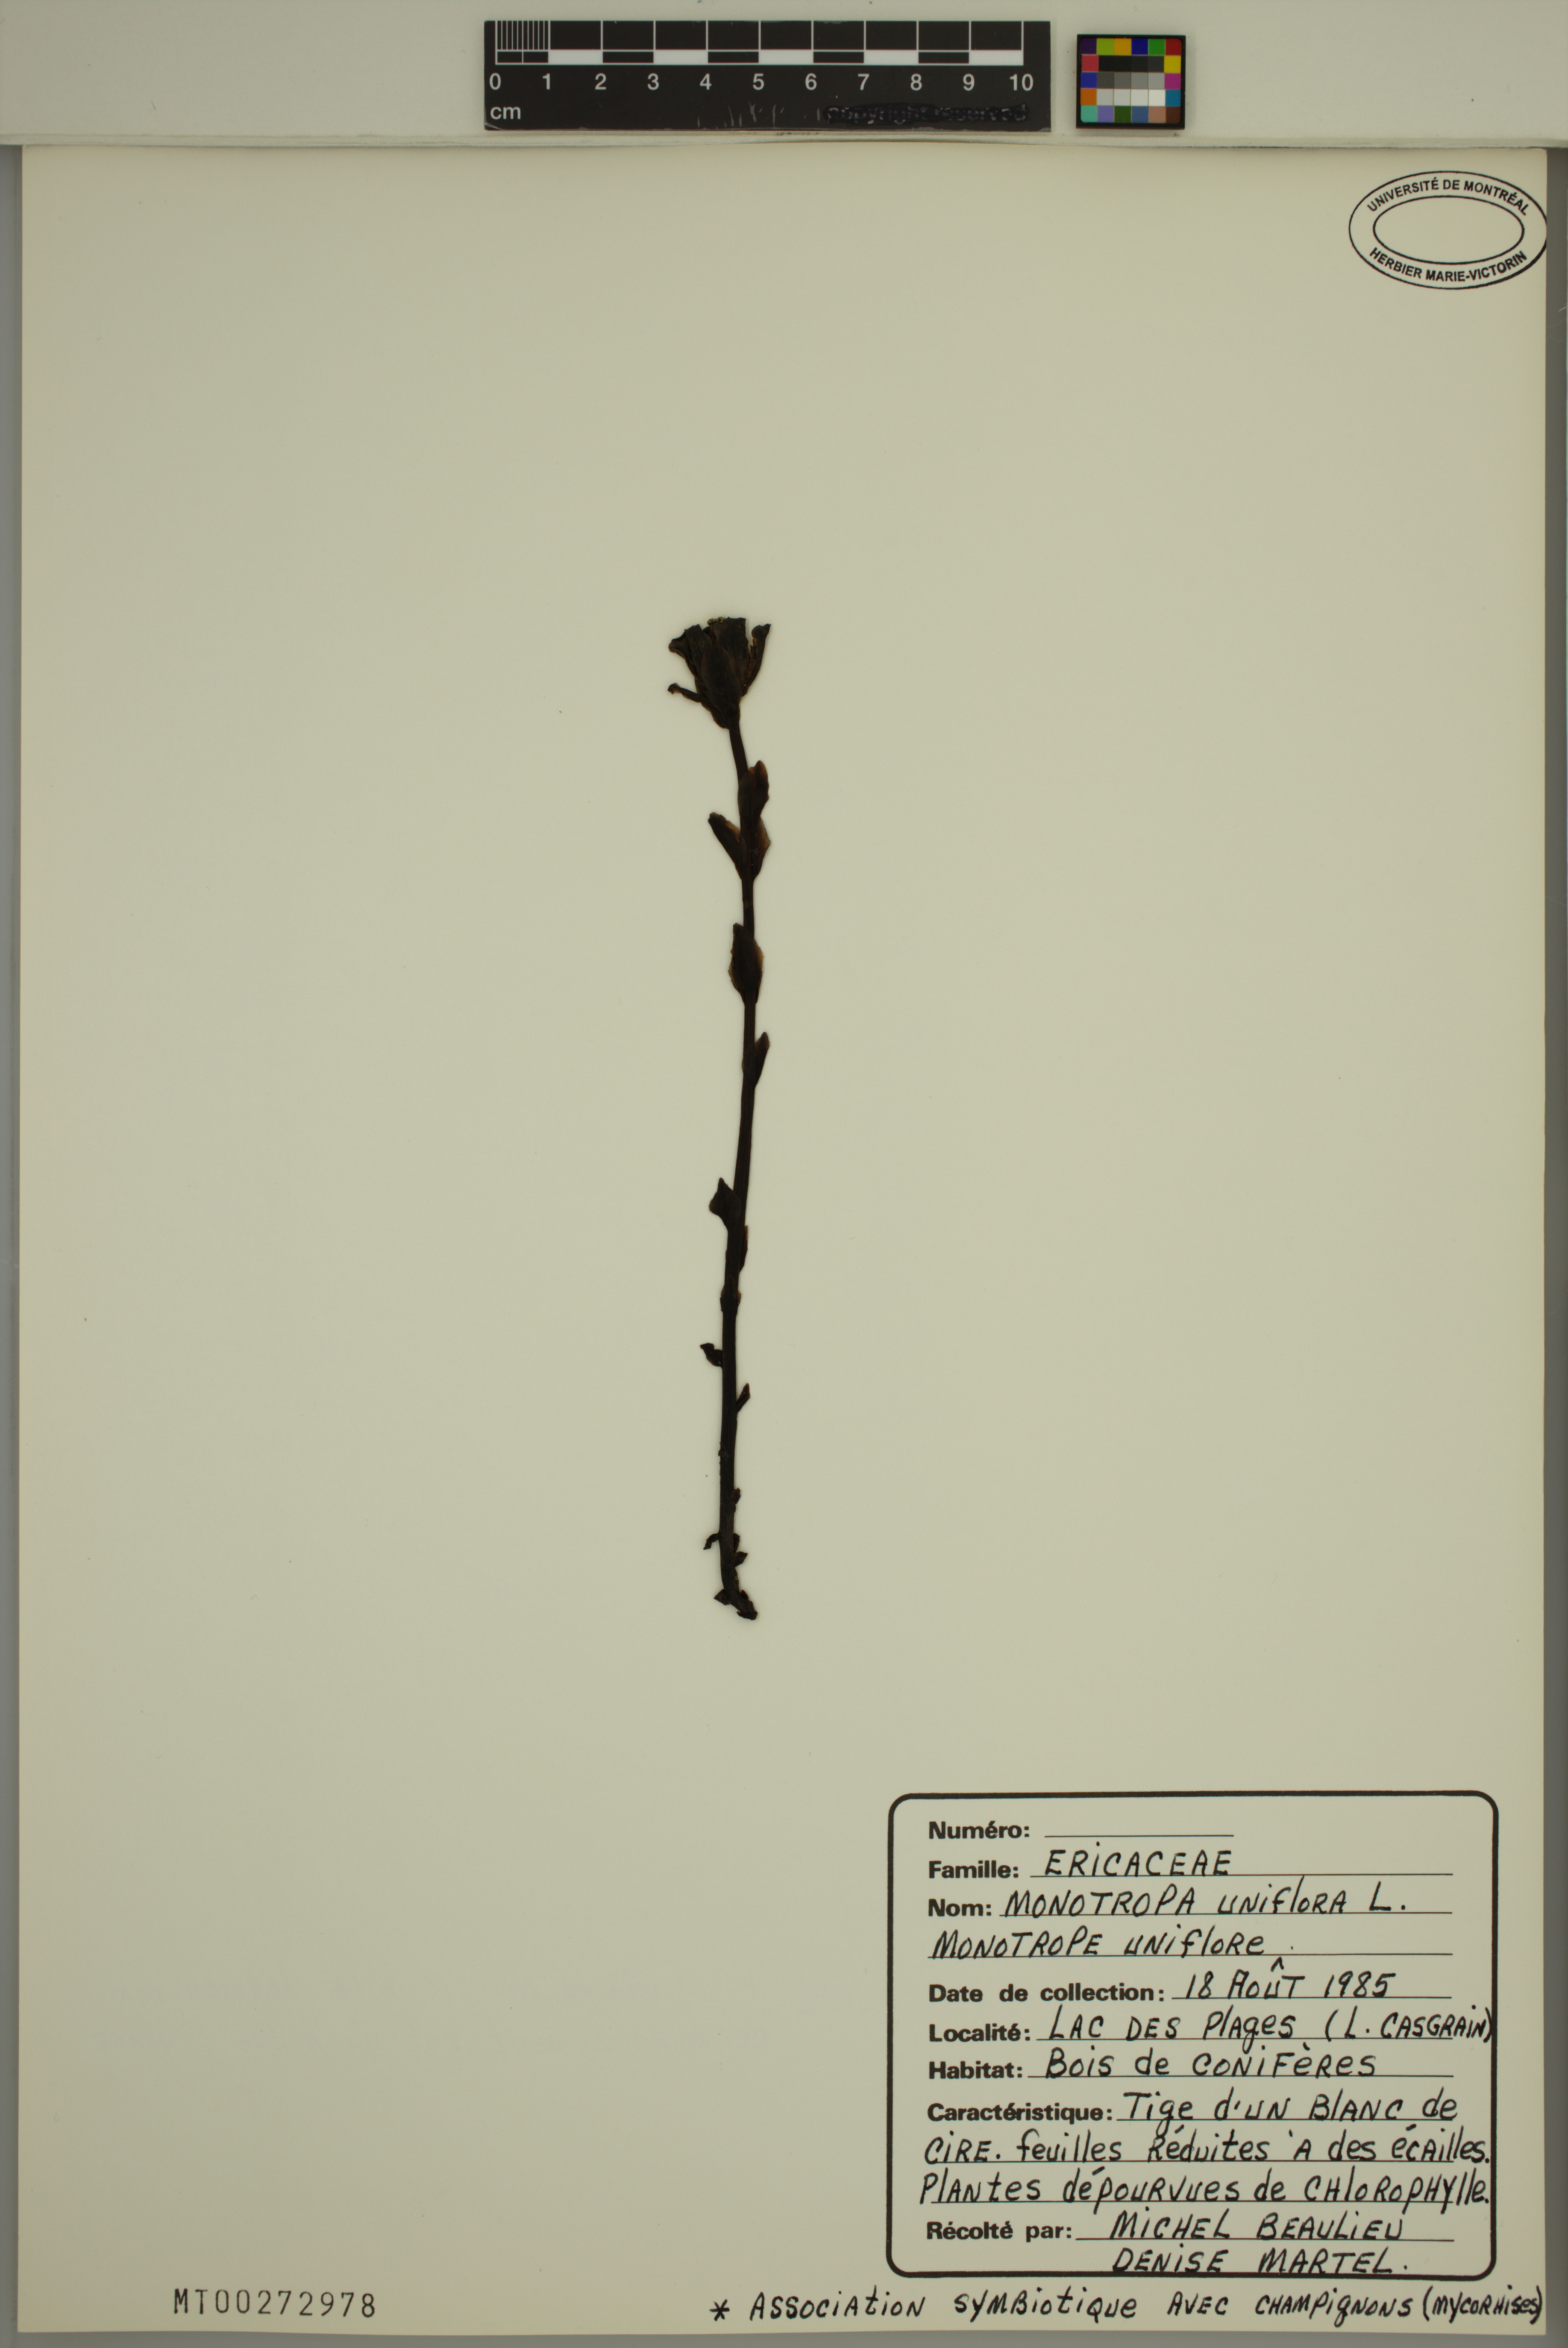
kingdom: Plantae
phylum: Tracheophyta
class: Magnoliopsida
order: Ericales
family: Ericaceae
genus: Monotropa
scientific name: Monotropa uniflora
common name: Convulsion root
